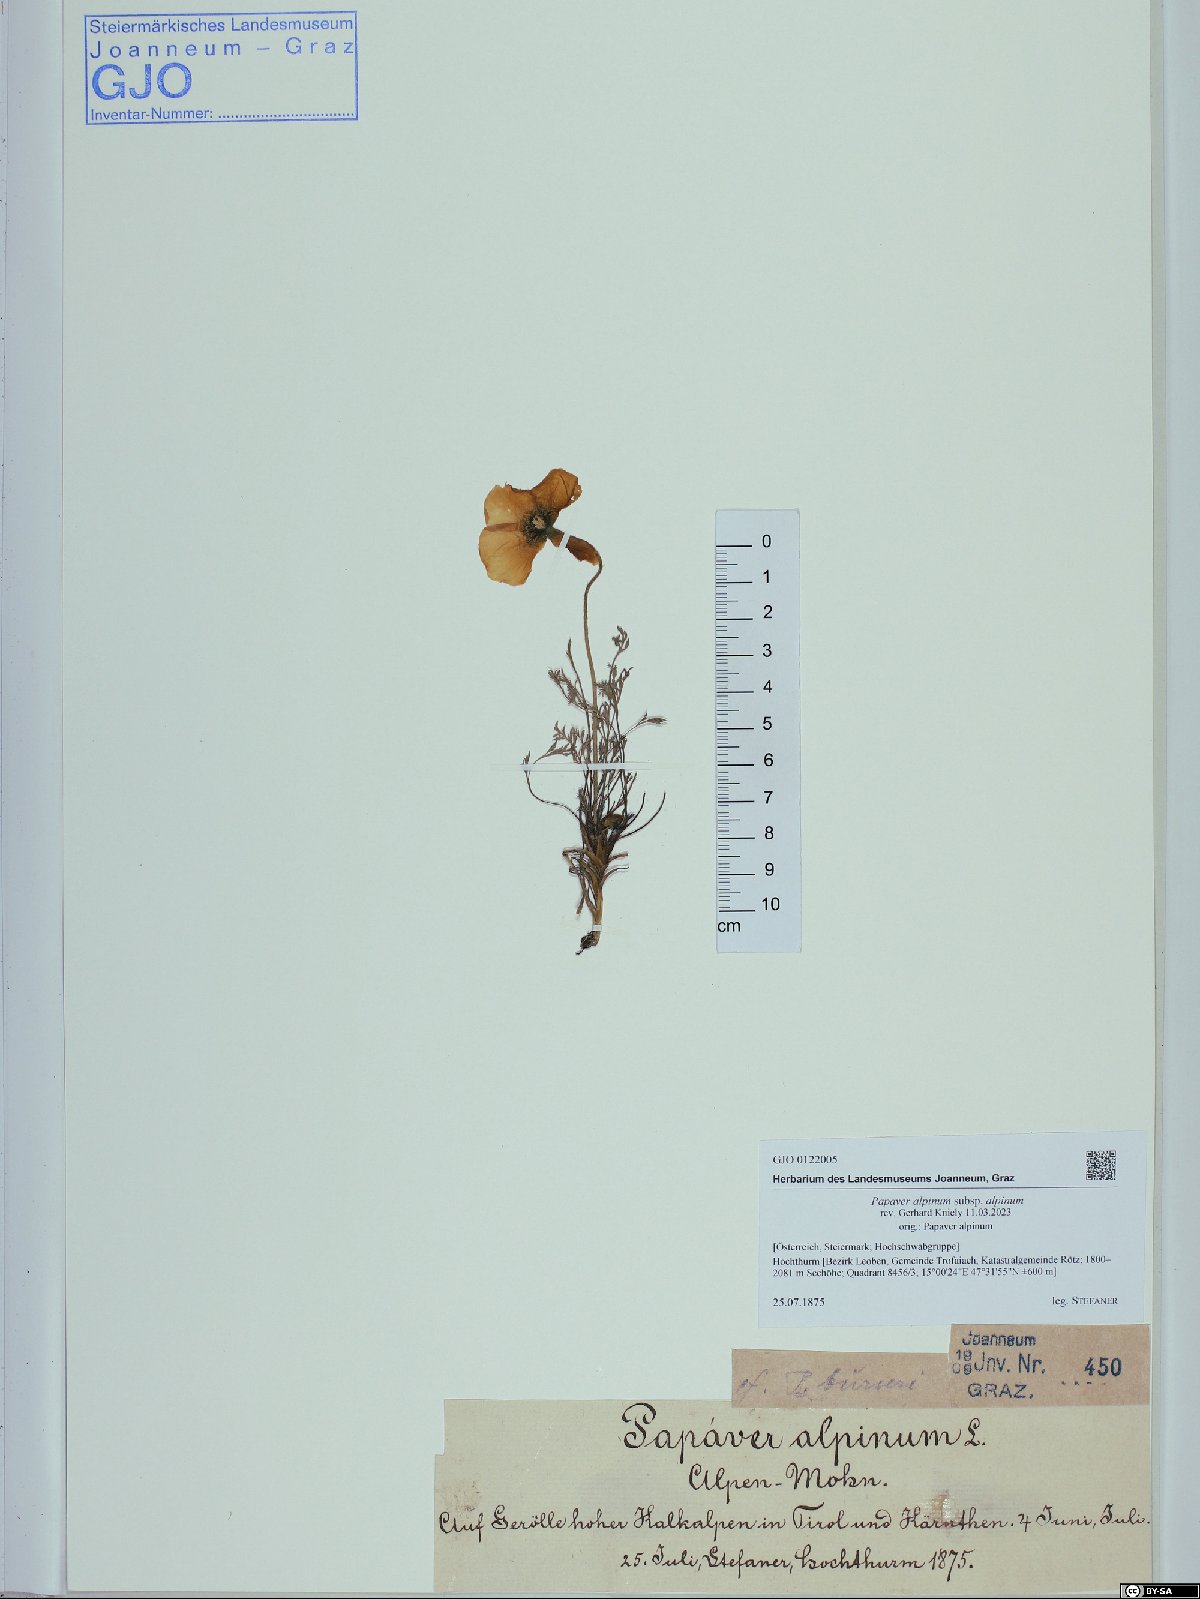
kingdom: Plantae
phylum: Tracheophyta
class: Magnoliopsida
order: Ranunculales
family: Papaveraceae
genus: Papaver
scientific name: Papaver alpinum
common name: Austrian poppy
